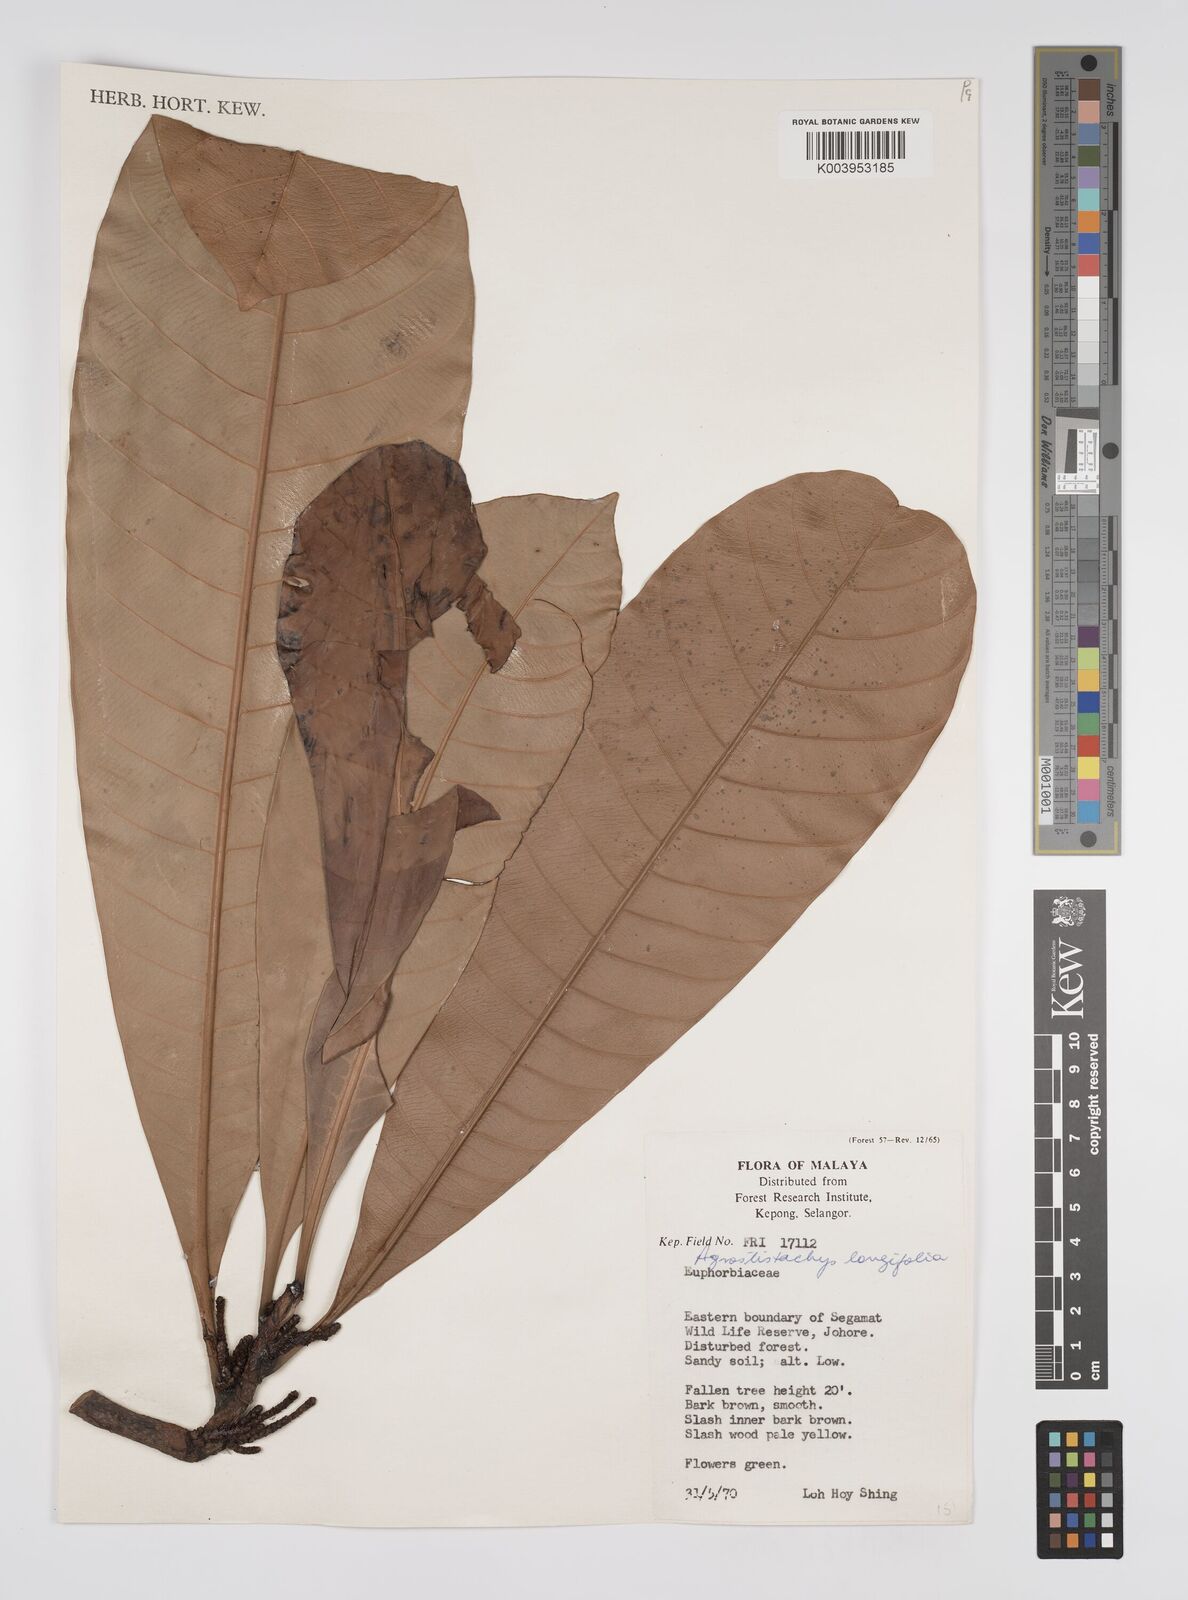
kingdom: Plantae
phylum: Tracheophyta
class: Magnoliopsida
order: Malpighiales
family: Euphorbiaceae
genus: Agrostistachys
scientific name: Agrostistachys borneensis
